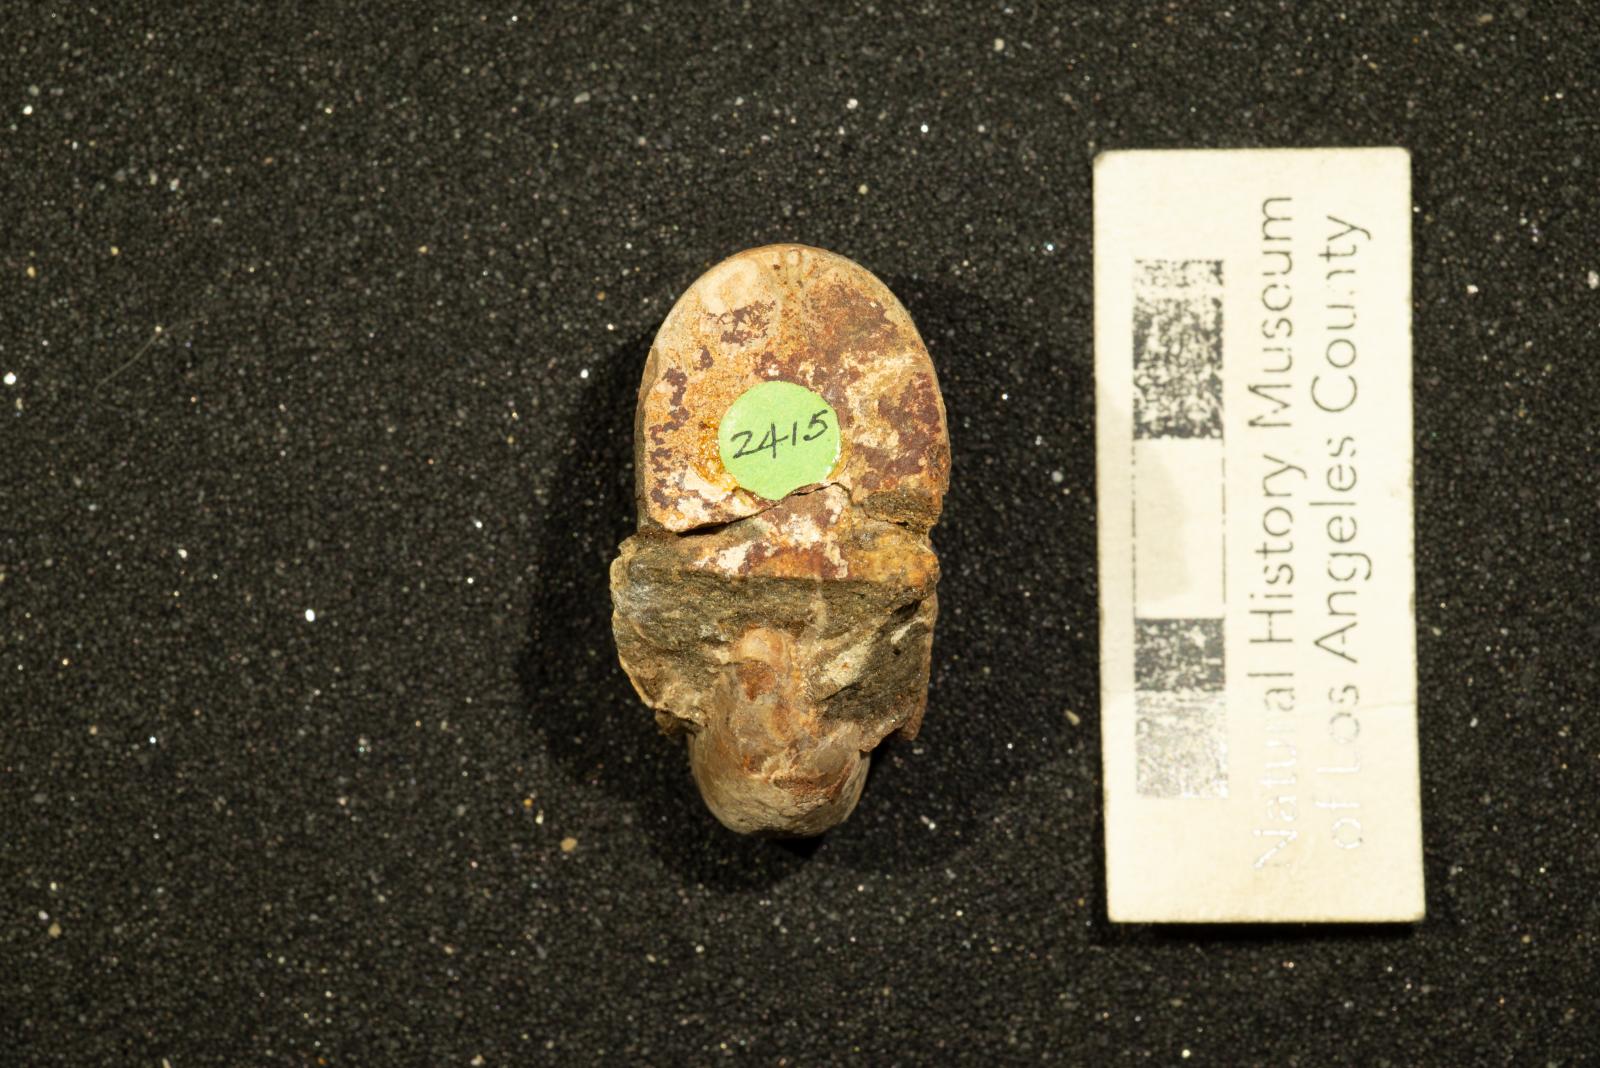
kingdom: Animalia
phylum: Mollusca
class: Cephalopoda
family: Tetragonitidae
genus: Pseudophyllites
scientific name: Pseudophyllites indra
